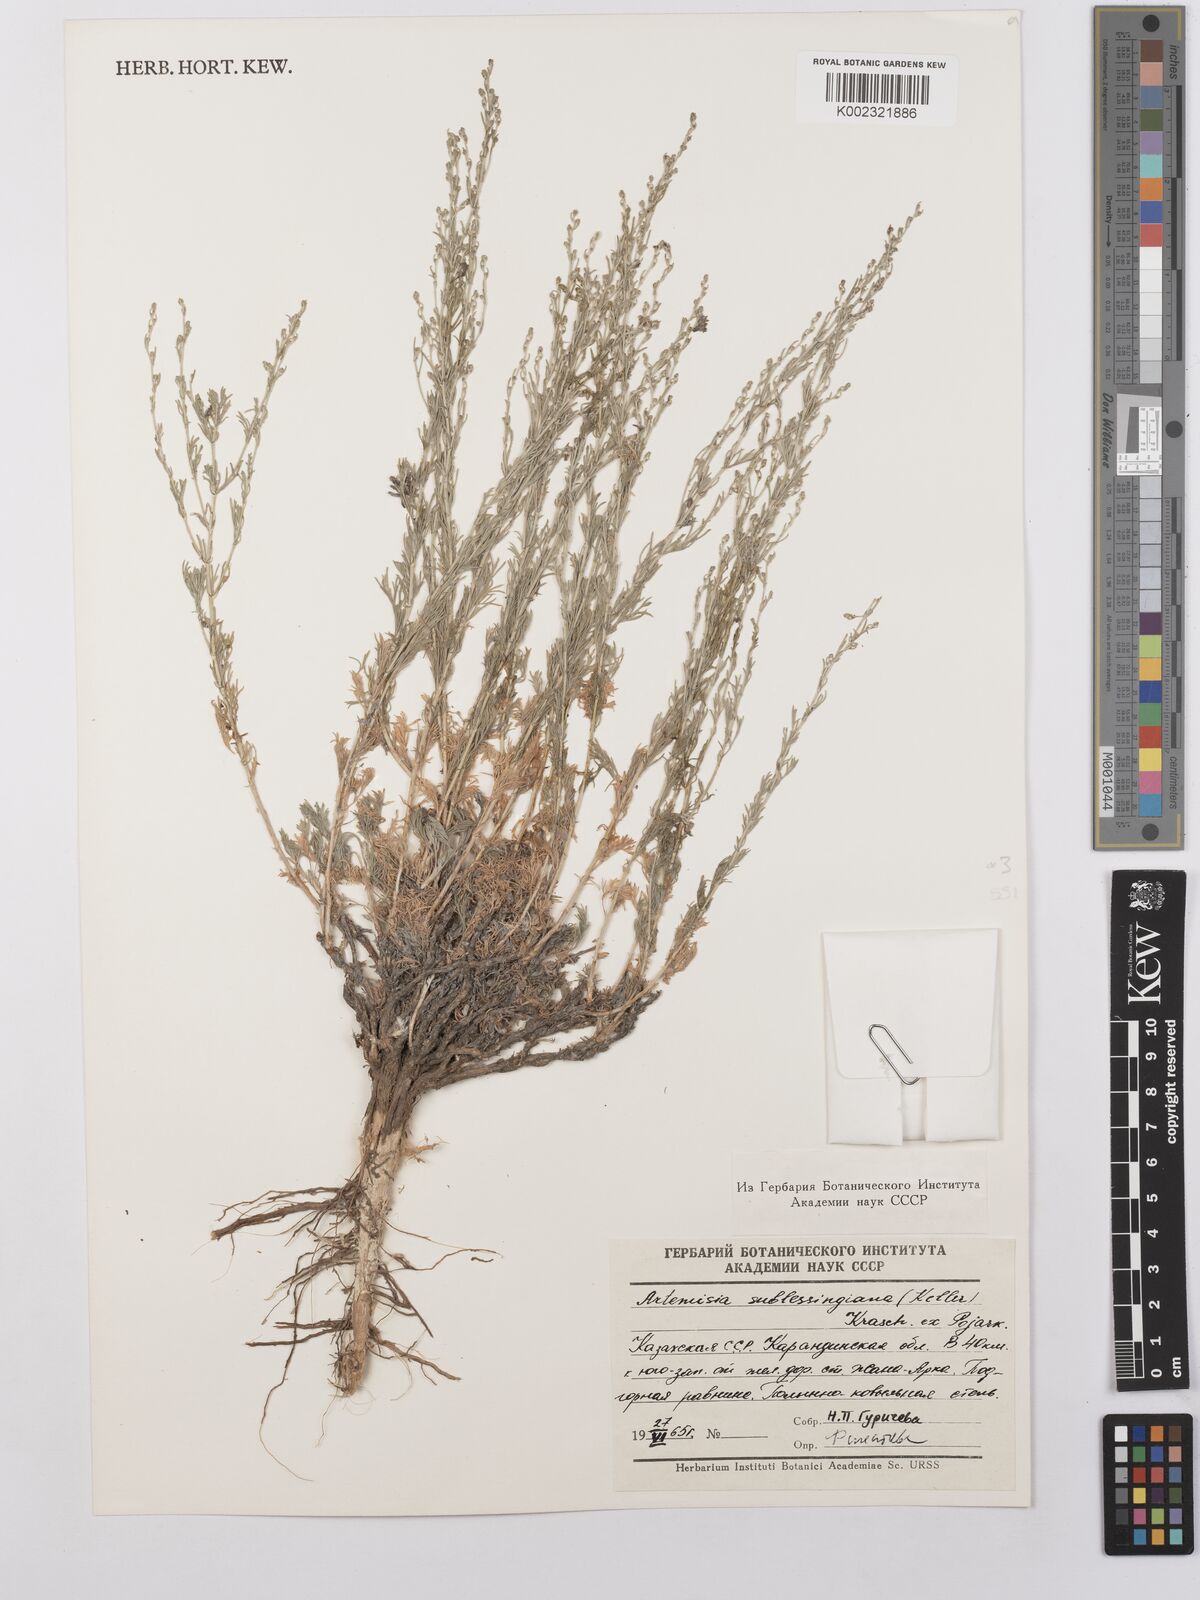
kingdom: Plantae
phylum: Tracheophyta
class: Magnoliopsida
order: Asterales
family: Asteraceae
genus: Artemisia
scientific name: Artemisia sublessingiana
